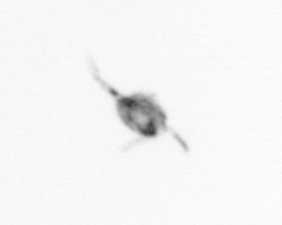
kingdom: Animalia
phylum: Arthropoda
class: Copepoda
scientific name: Copepoda
